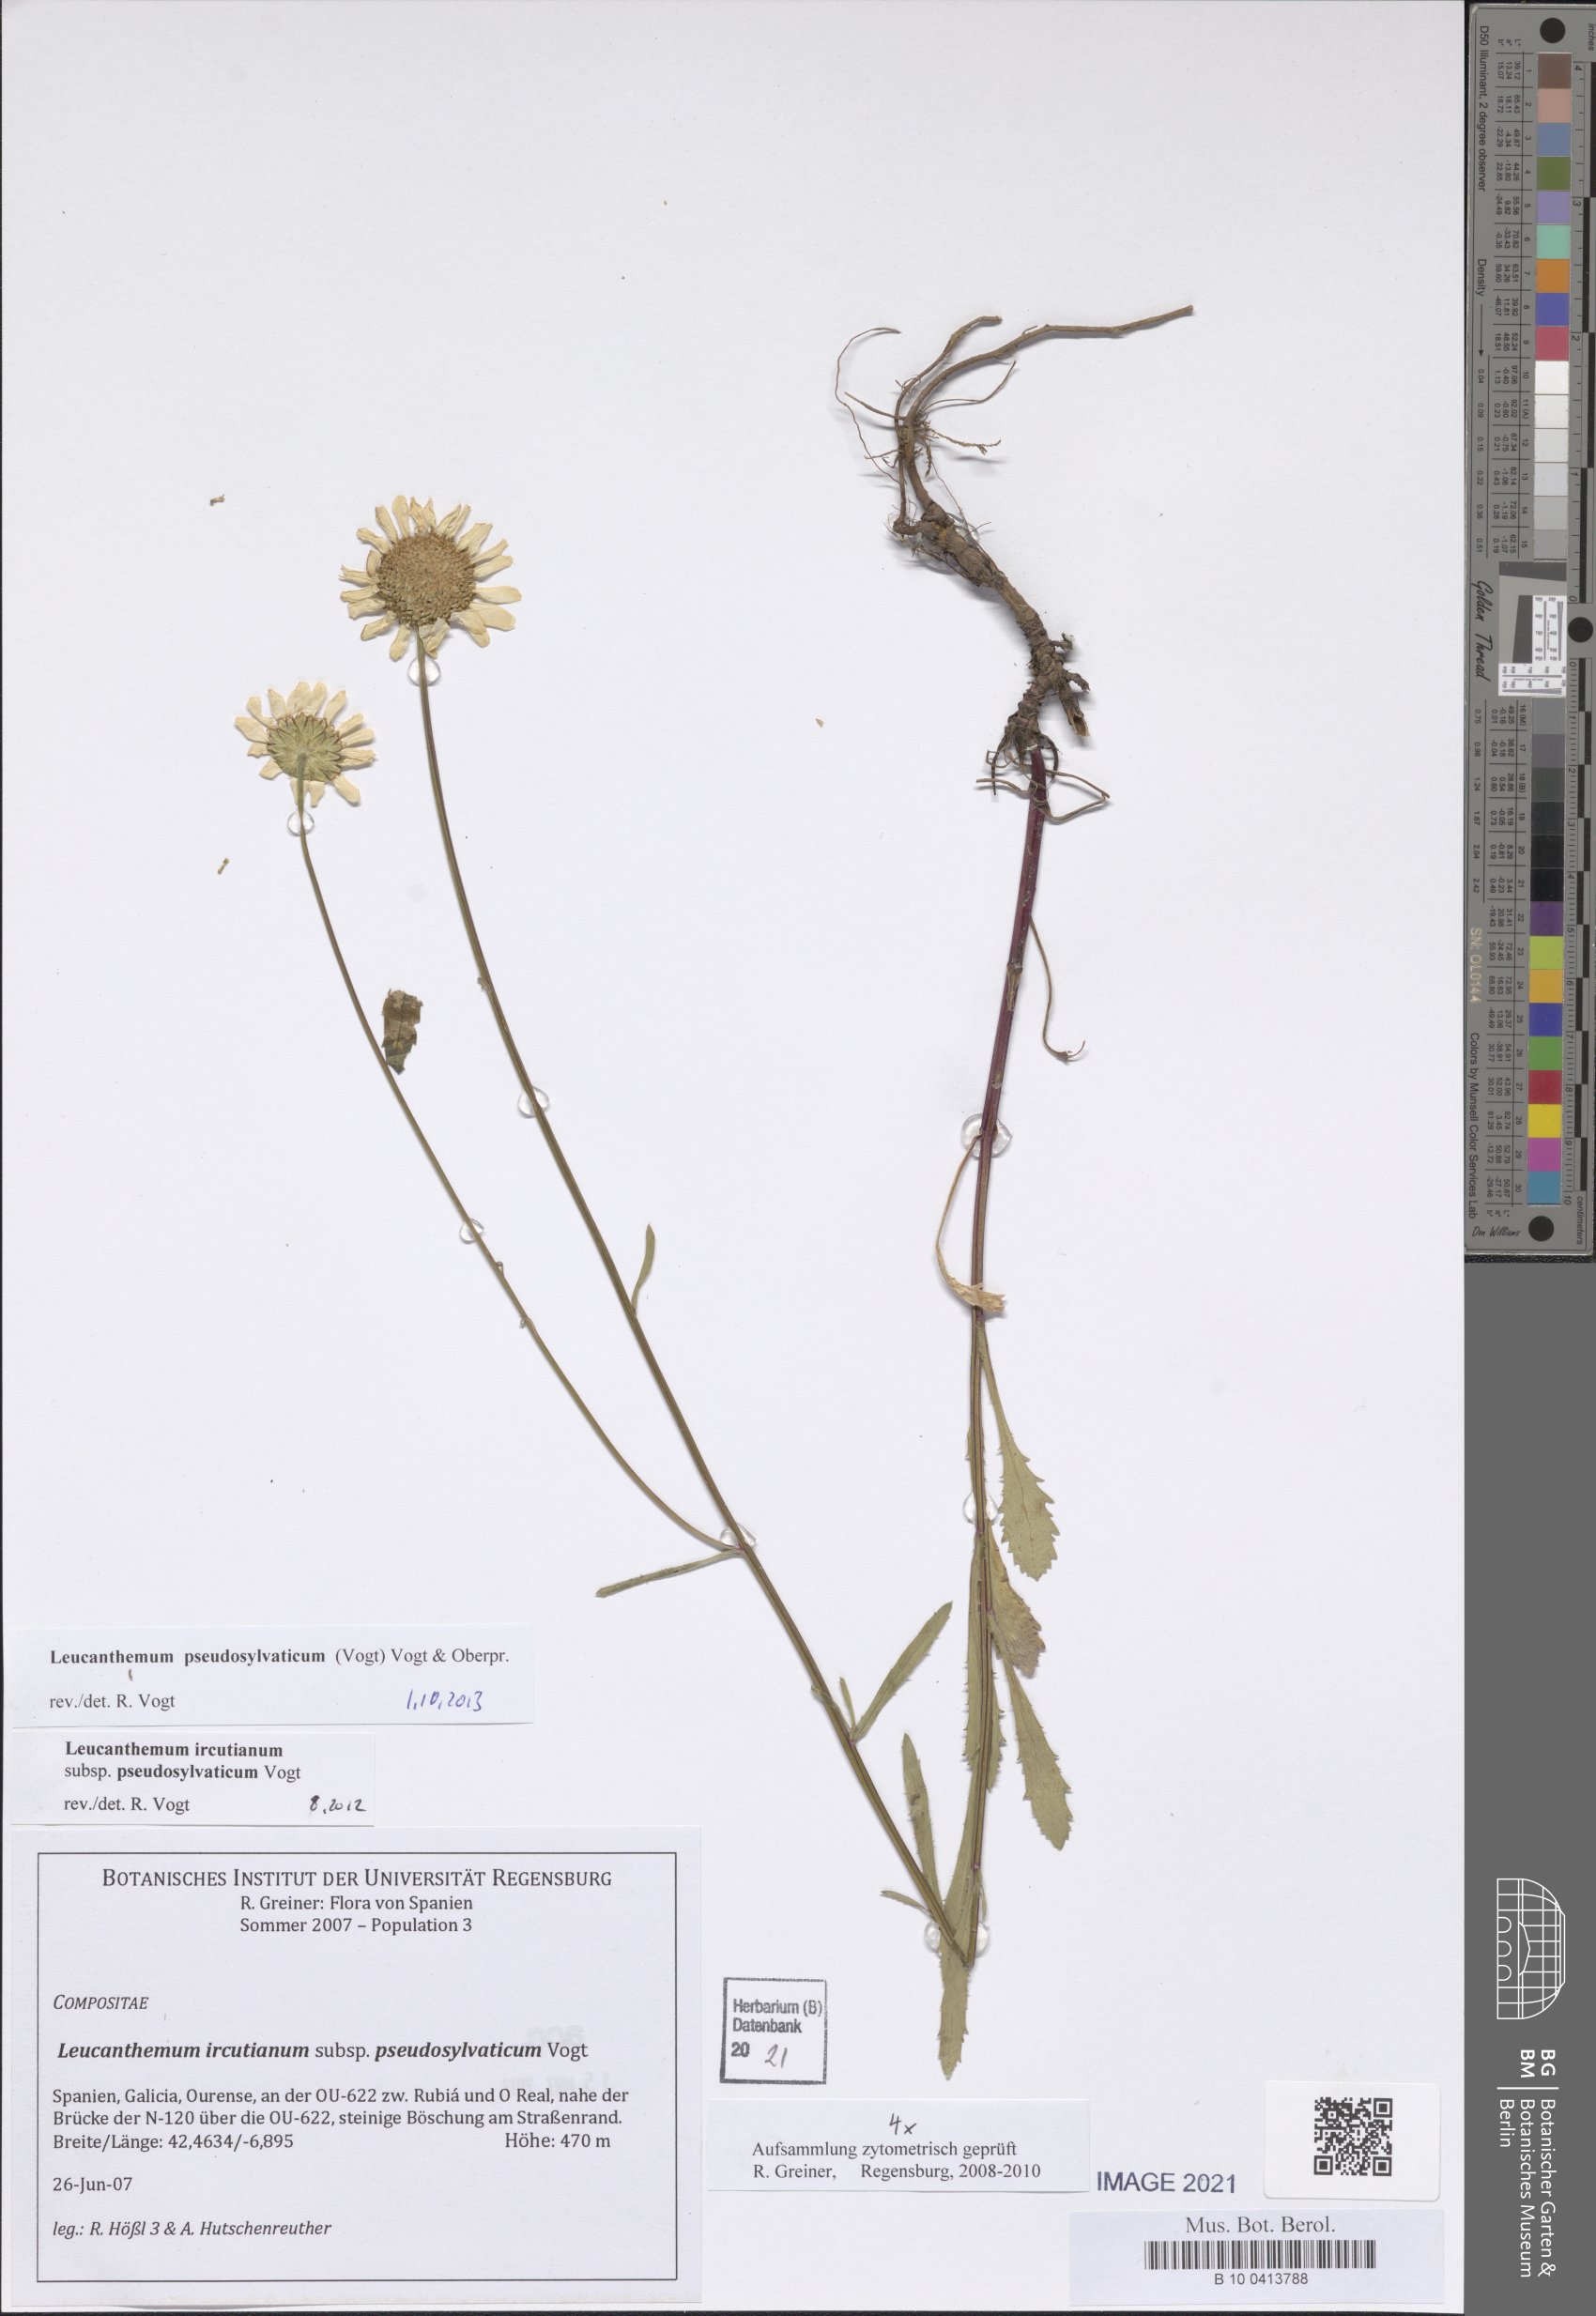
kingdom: Plantae
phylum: Tracheophyta
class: Magnoliopsida
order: Asterales
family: Asteraceae
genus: Leucanthemum
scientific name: Leucanthemum pseudosylvaticum
